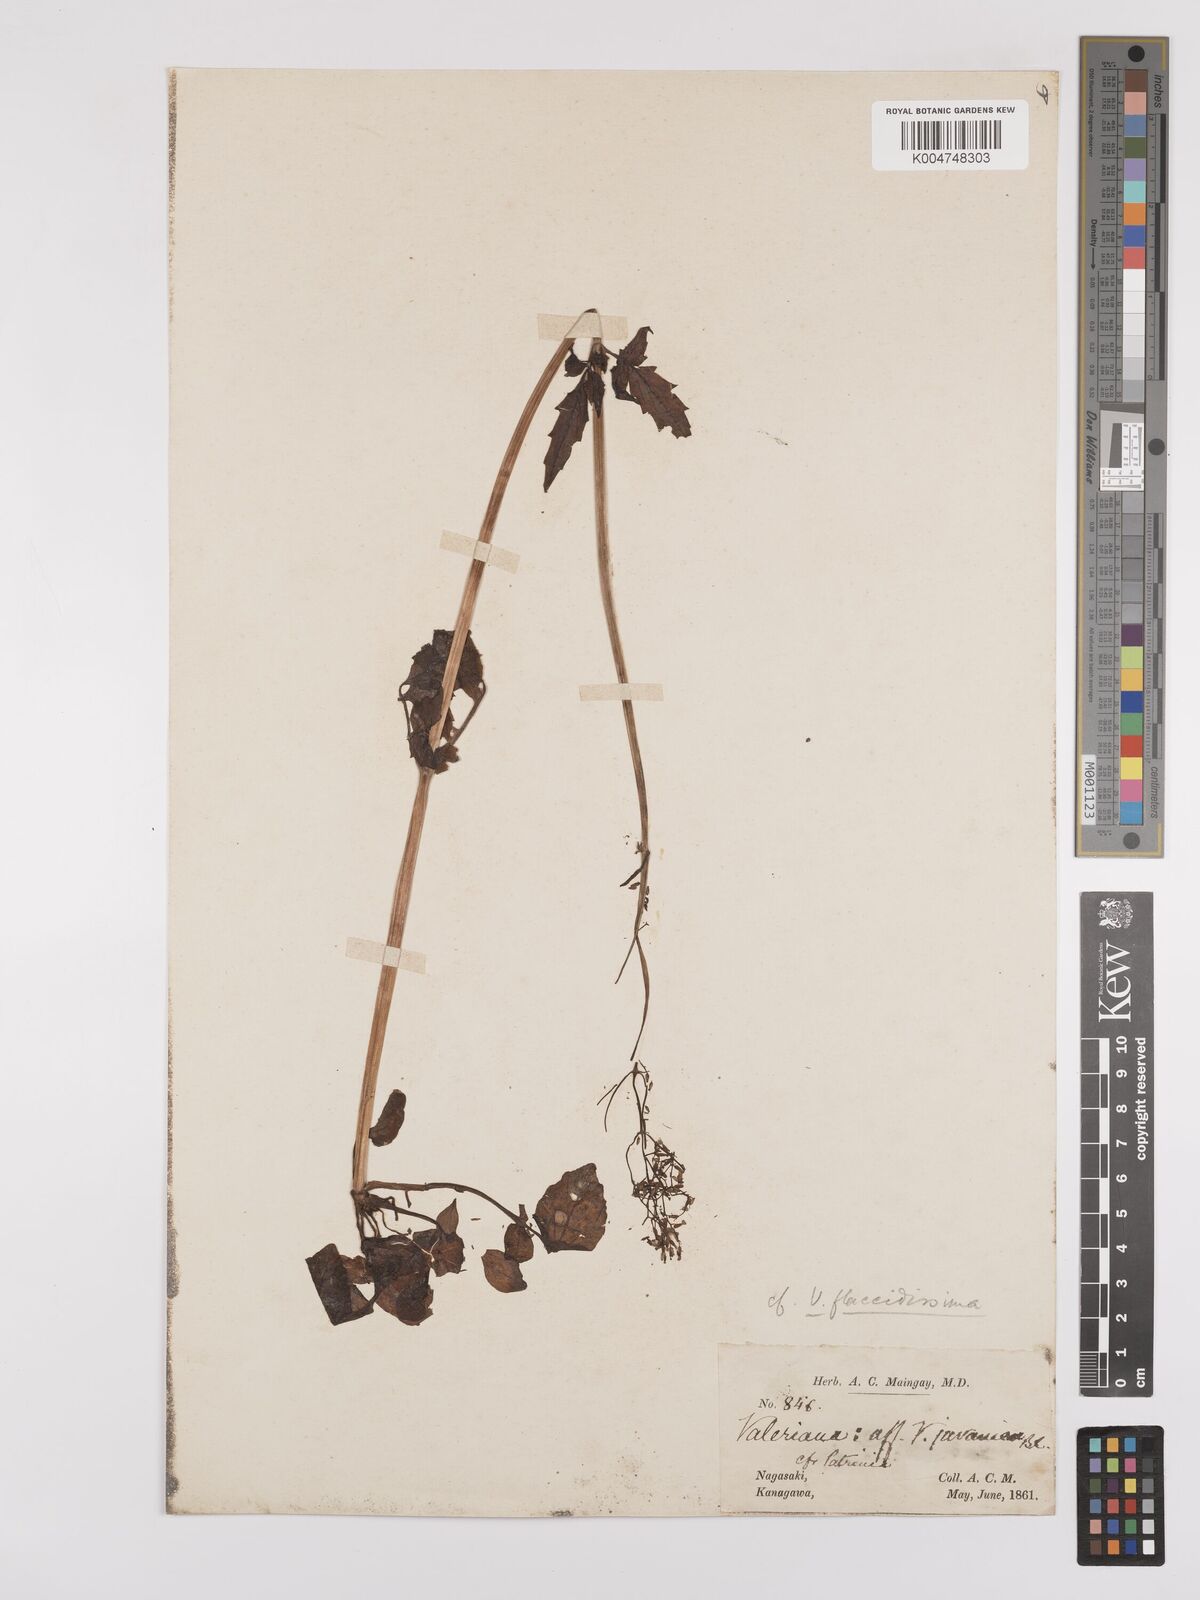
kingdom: Plantae
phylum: Tracheophyta
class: Magnoliopsida
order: Dipsacales
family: Caprifoliaceae
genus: Valeriana
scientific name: Valeriana flaccidissima
